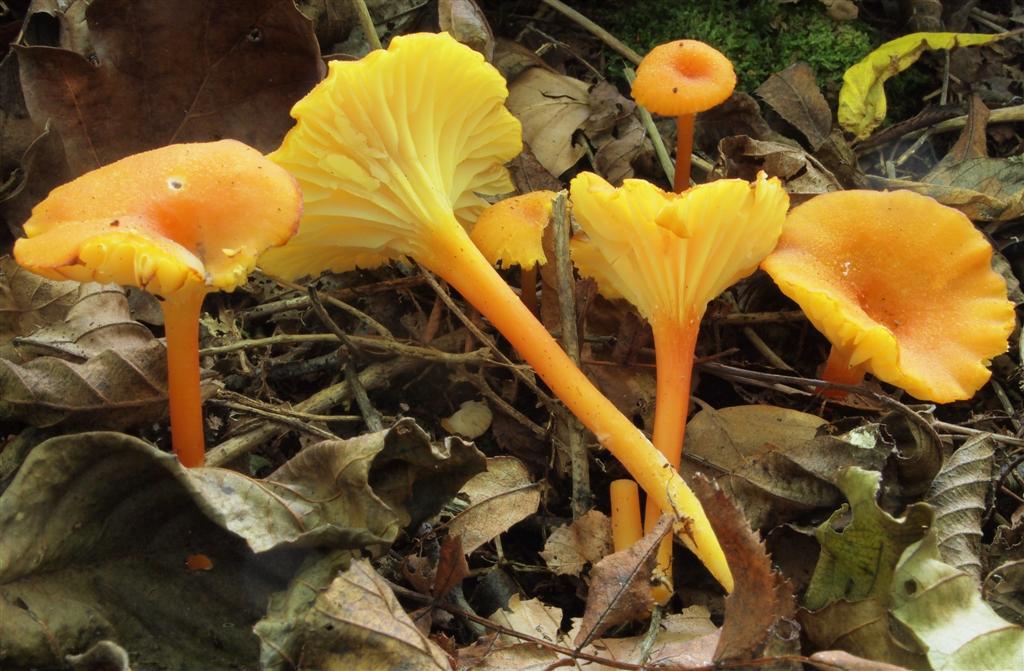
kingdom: Fungi
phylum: Basidiomycota
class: Agaricomycetes
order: Agaricales
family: Hygrophoraceae
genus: Hygrocybe
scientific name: Hygrocybe cantharellus
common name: kantarel-vokshat
